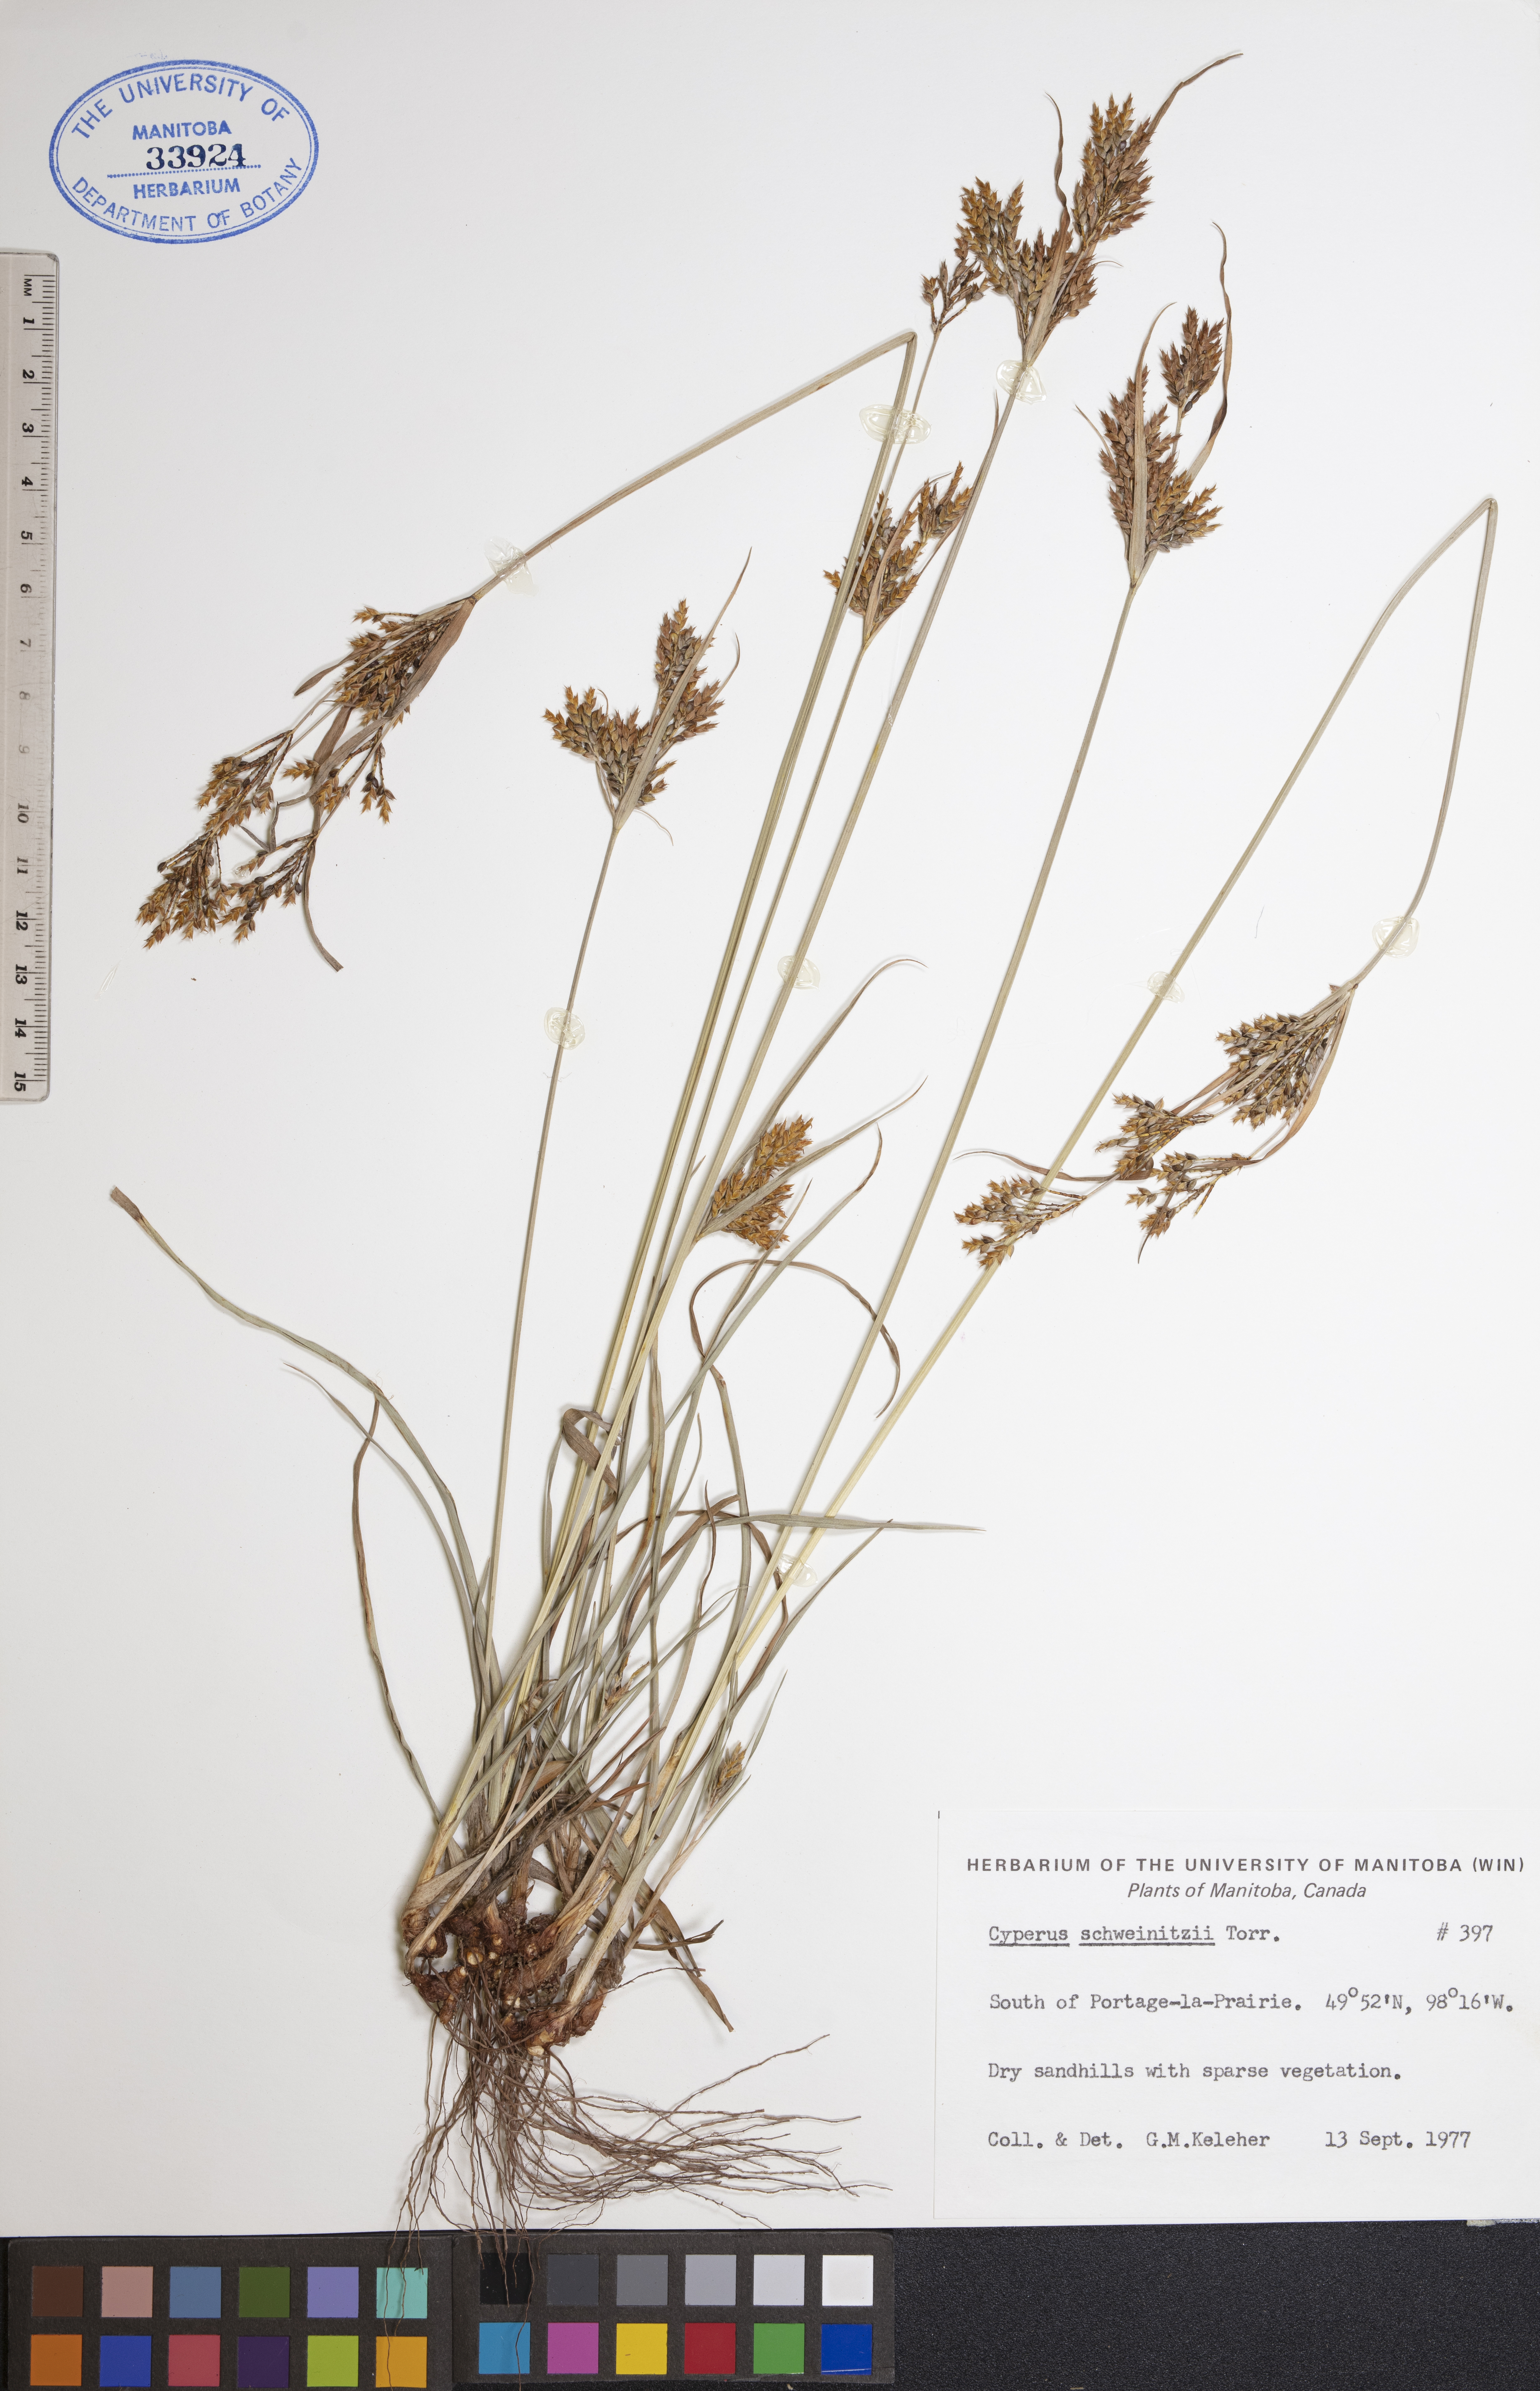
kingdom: Plantae
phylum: Tracheophyta
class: Liliopsida
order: Poales
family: Cyperaceae
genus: Cyperus
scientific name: Cyperus schweinitzii
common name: Schweinitz's cyperus
